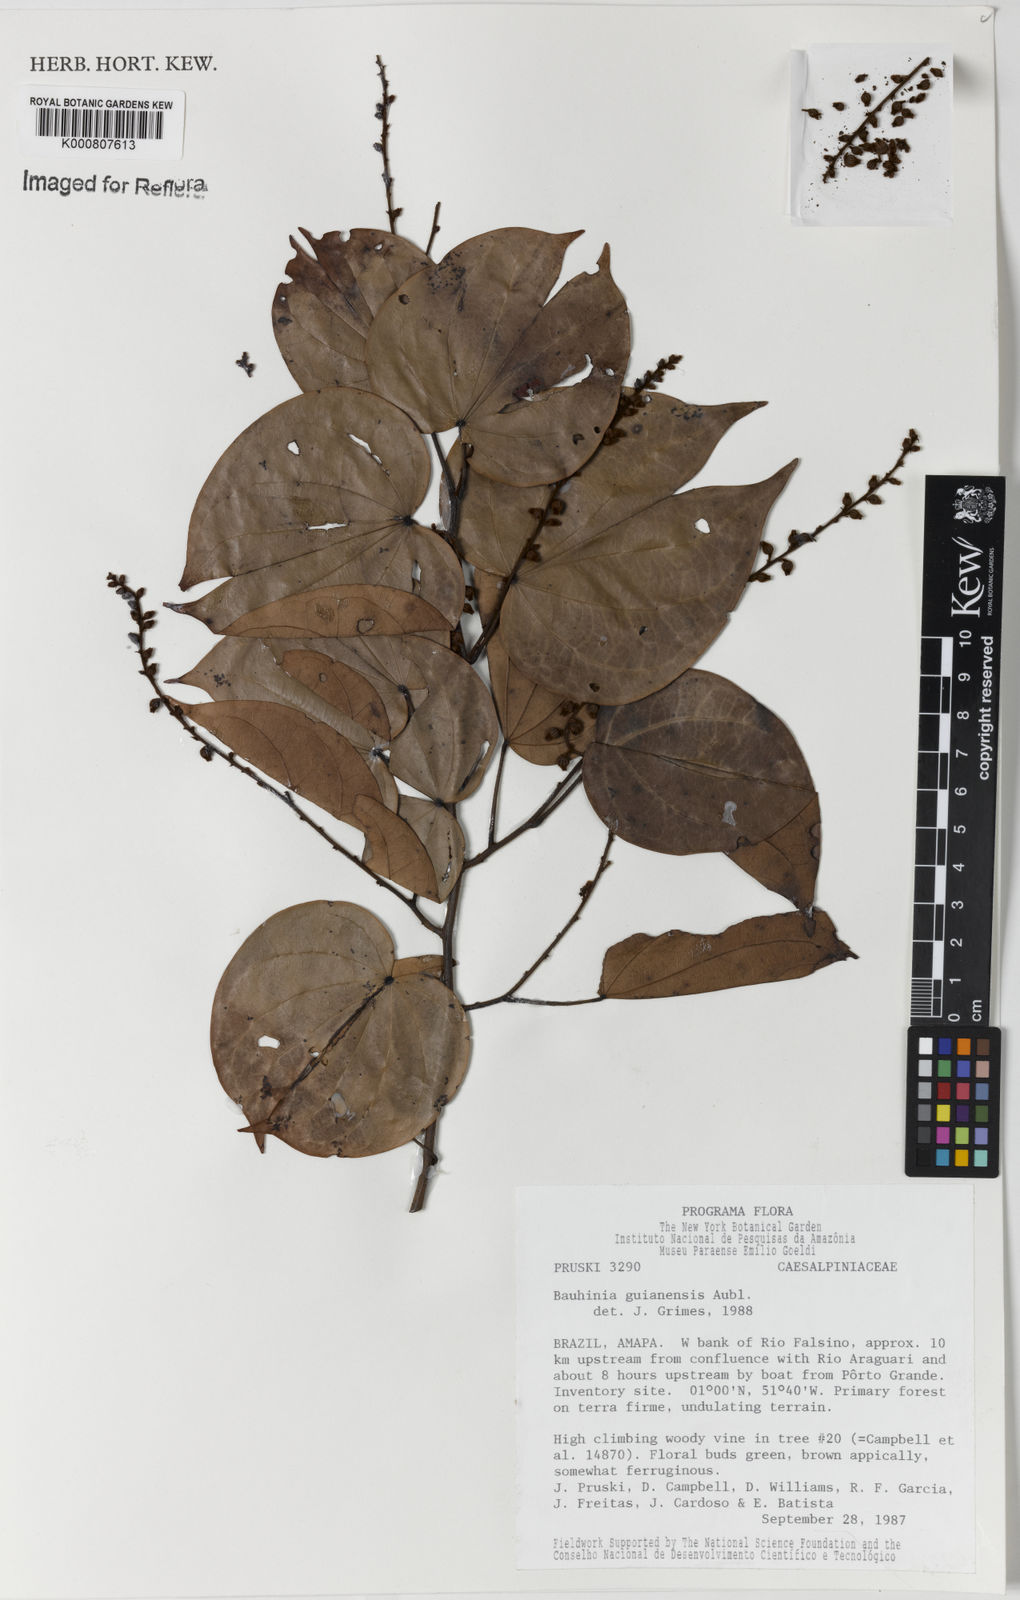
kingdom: Plantae
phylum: Tracheophyta
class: Magnoliopsida
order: Fabales
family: Fabaceae
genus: Schnella
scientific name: Schnella guianensis
